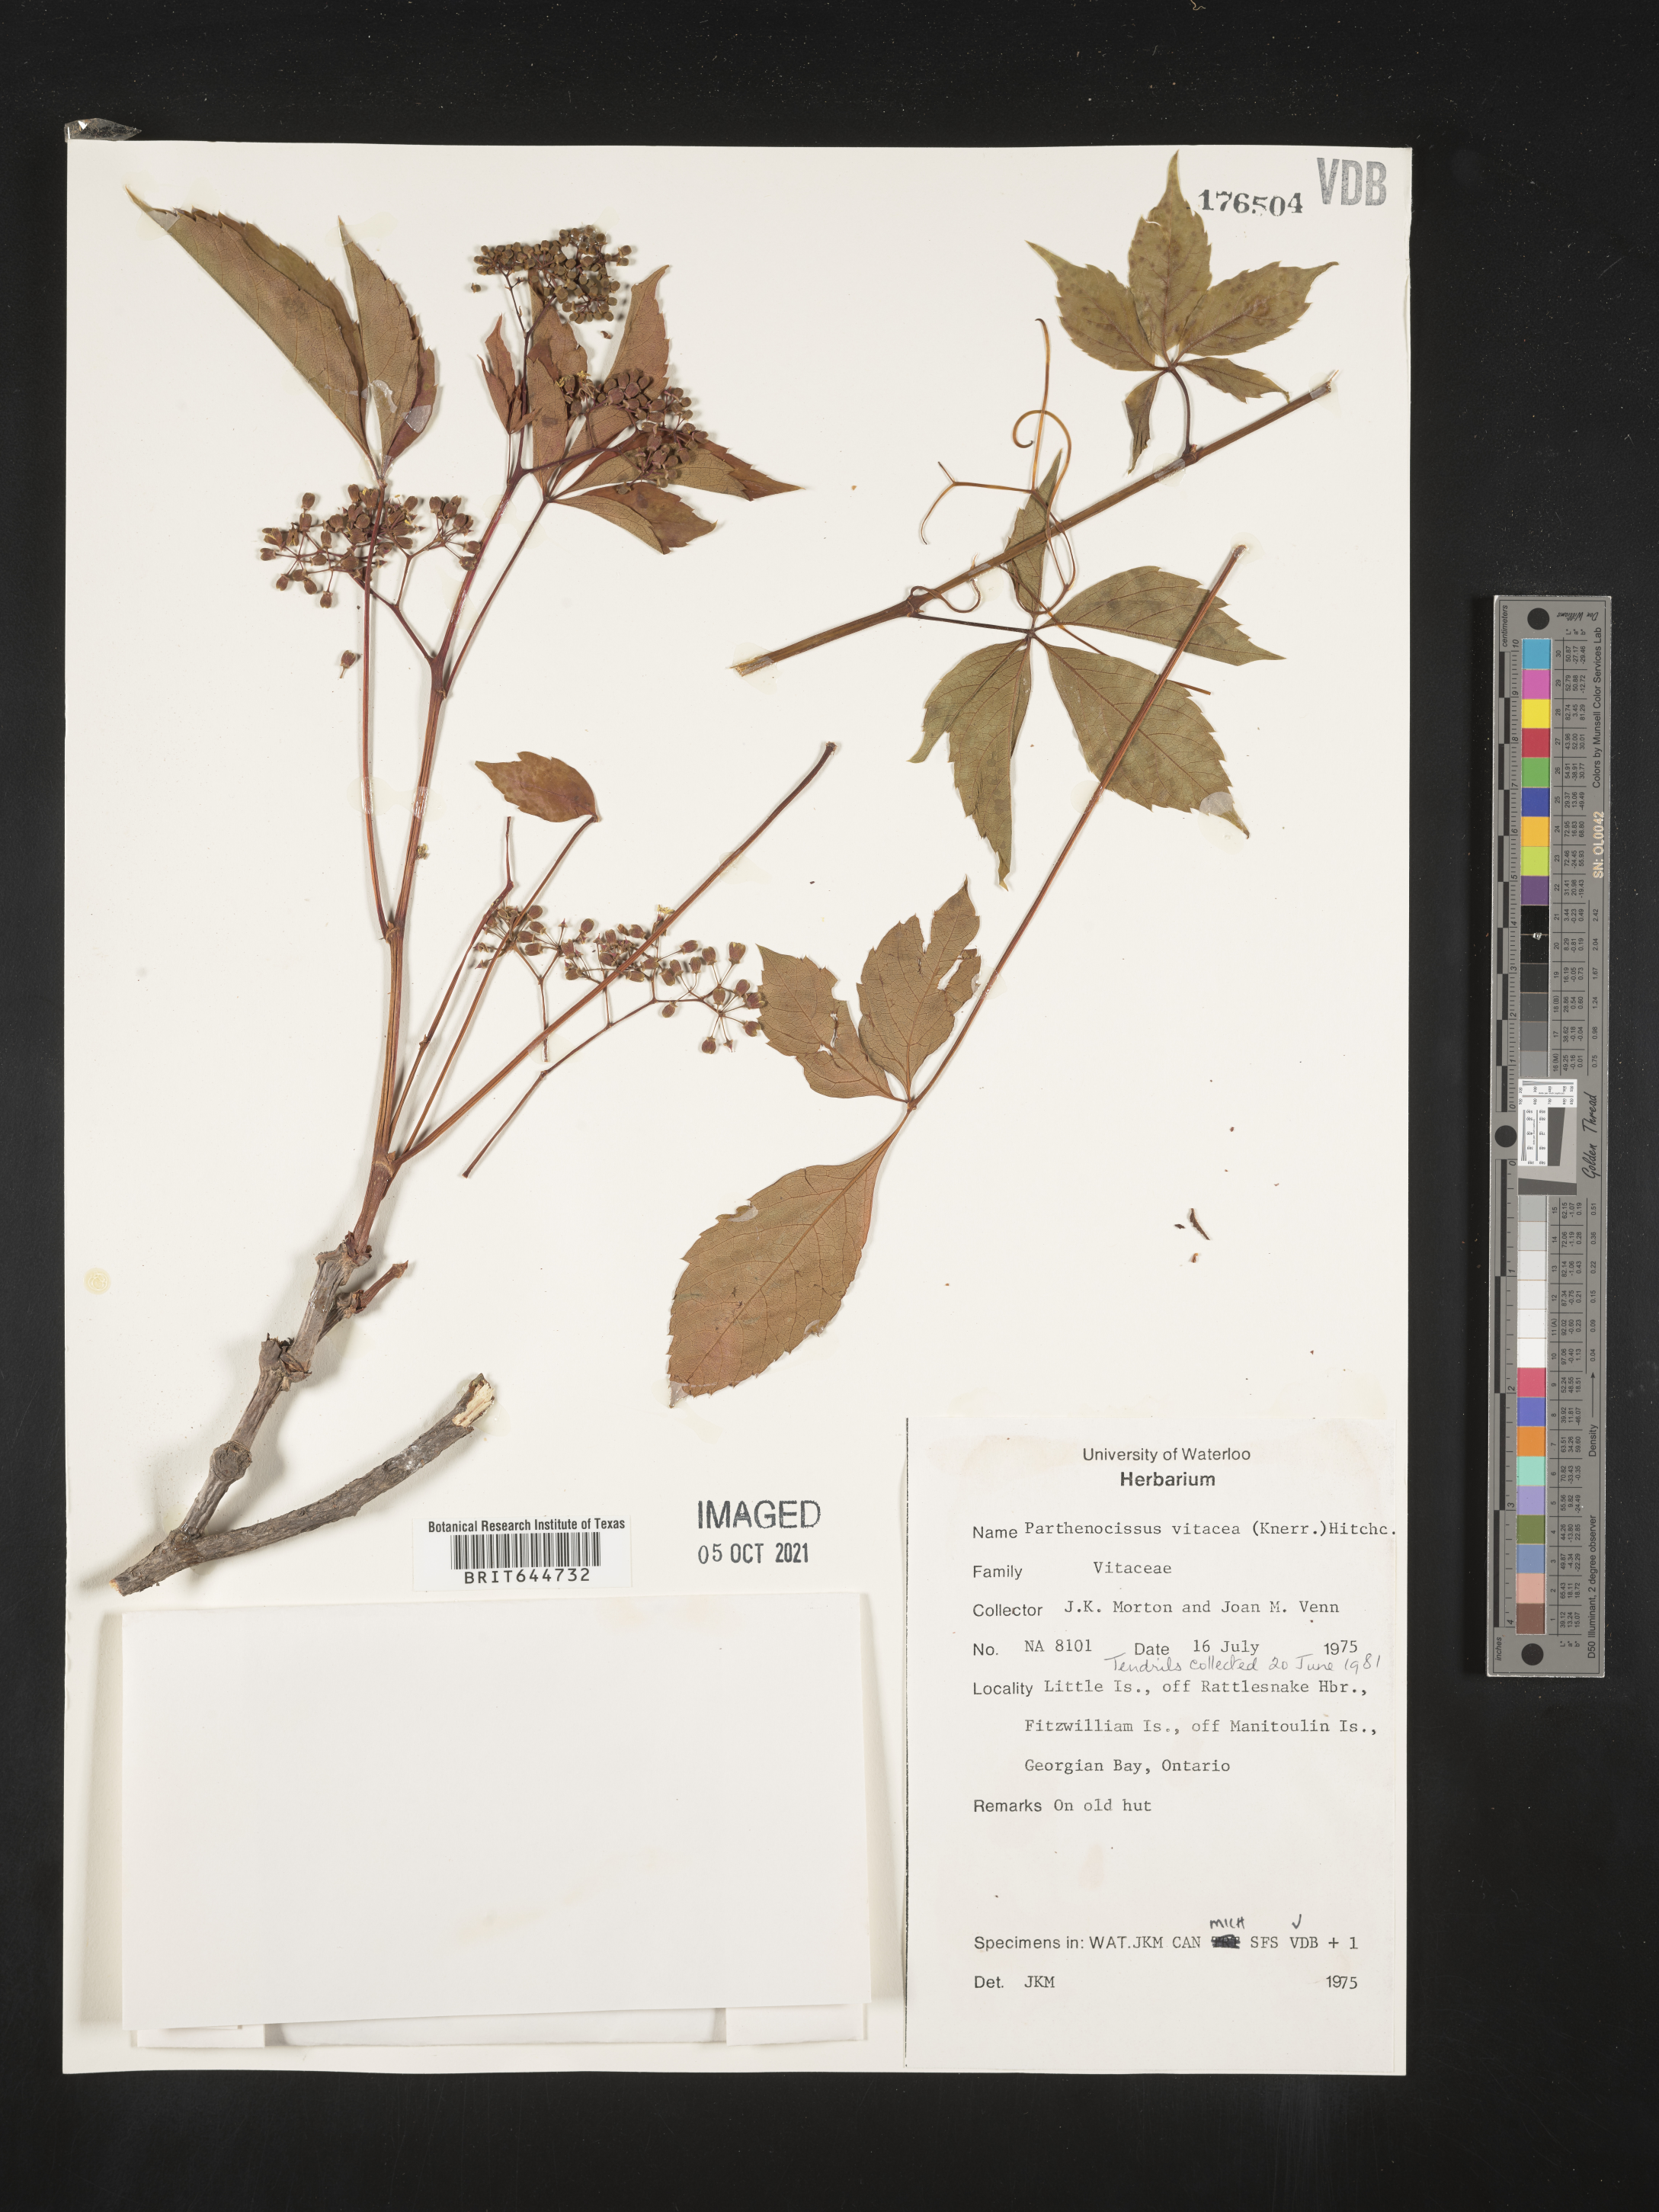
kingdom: Plantae
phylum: Tracheophyta
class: Magnoliopsida
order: Vitales
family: Vitaceae
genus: Parthenocissus
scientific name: Parthenocissus
